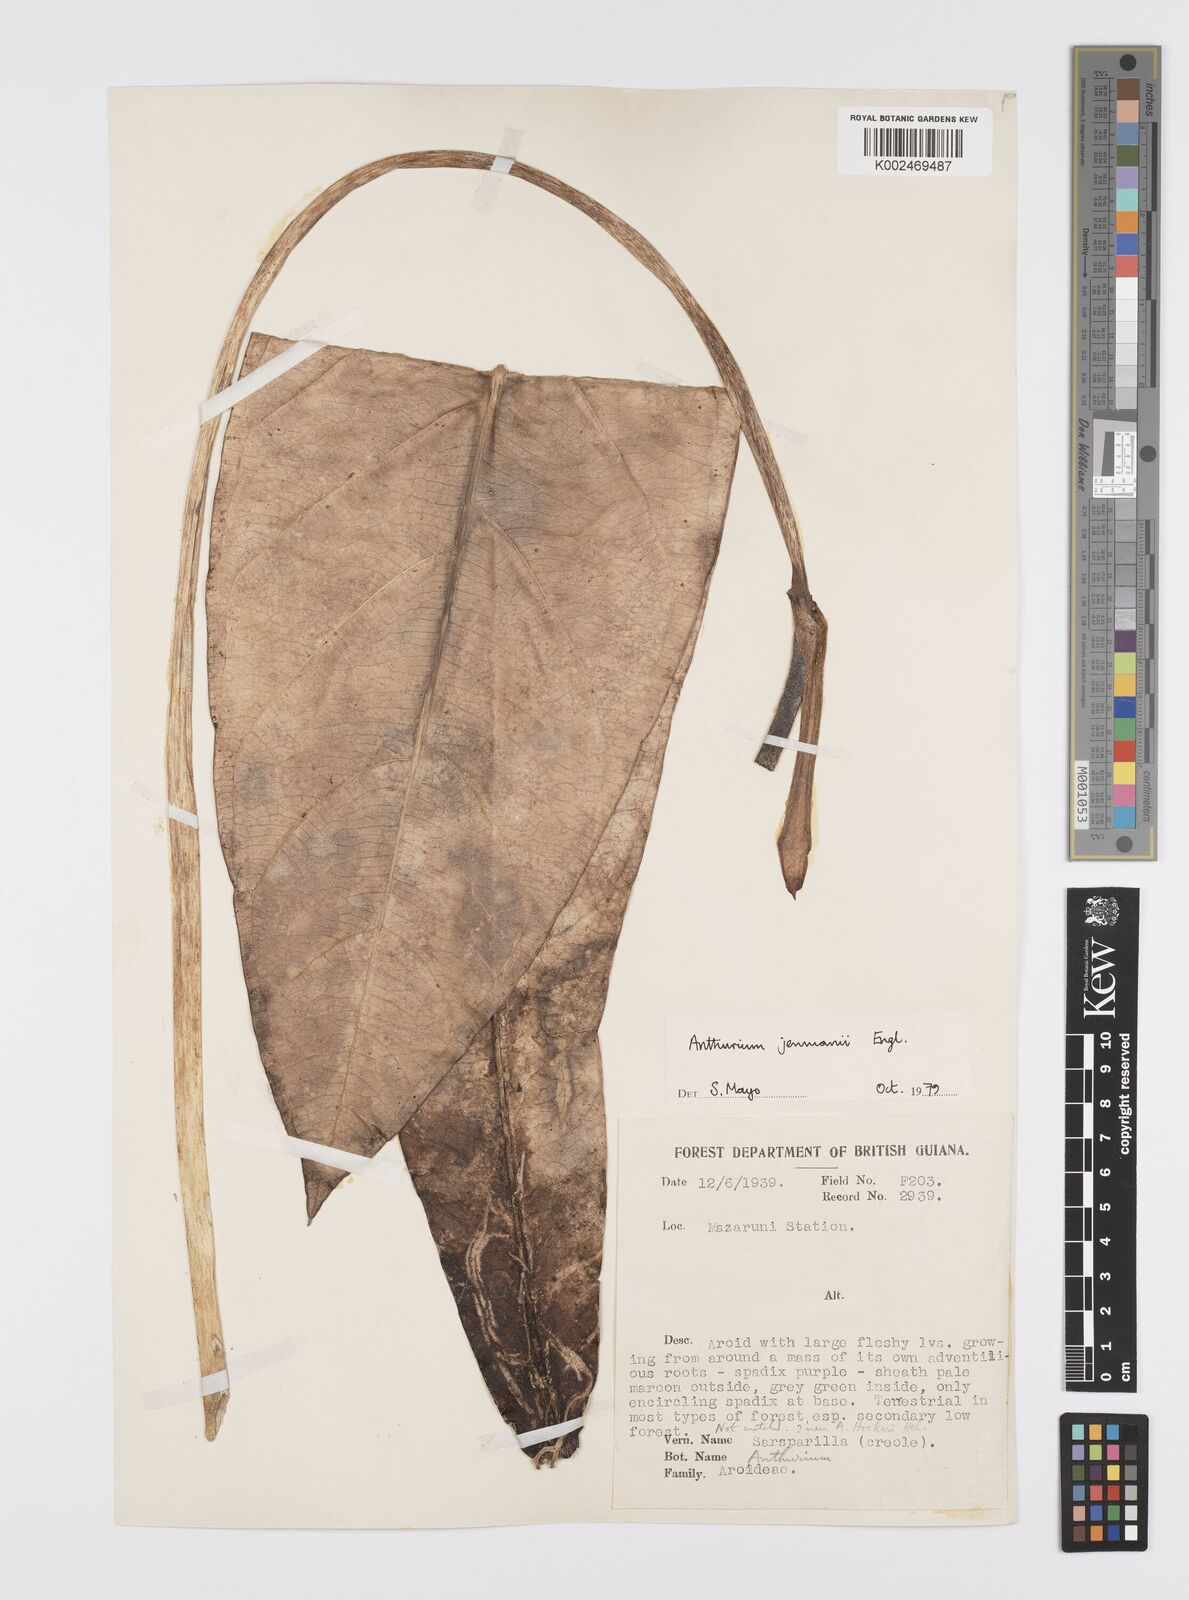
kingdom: Plantae
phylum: Tracheophyta
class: Liliopsida
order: Alismatales
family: Araceae
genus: Anthurium
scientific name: Anthurium jenmanii
